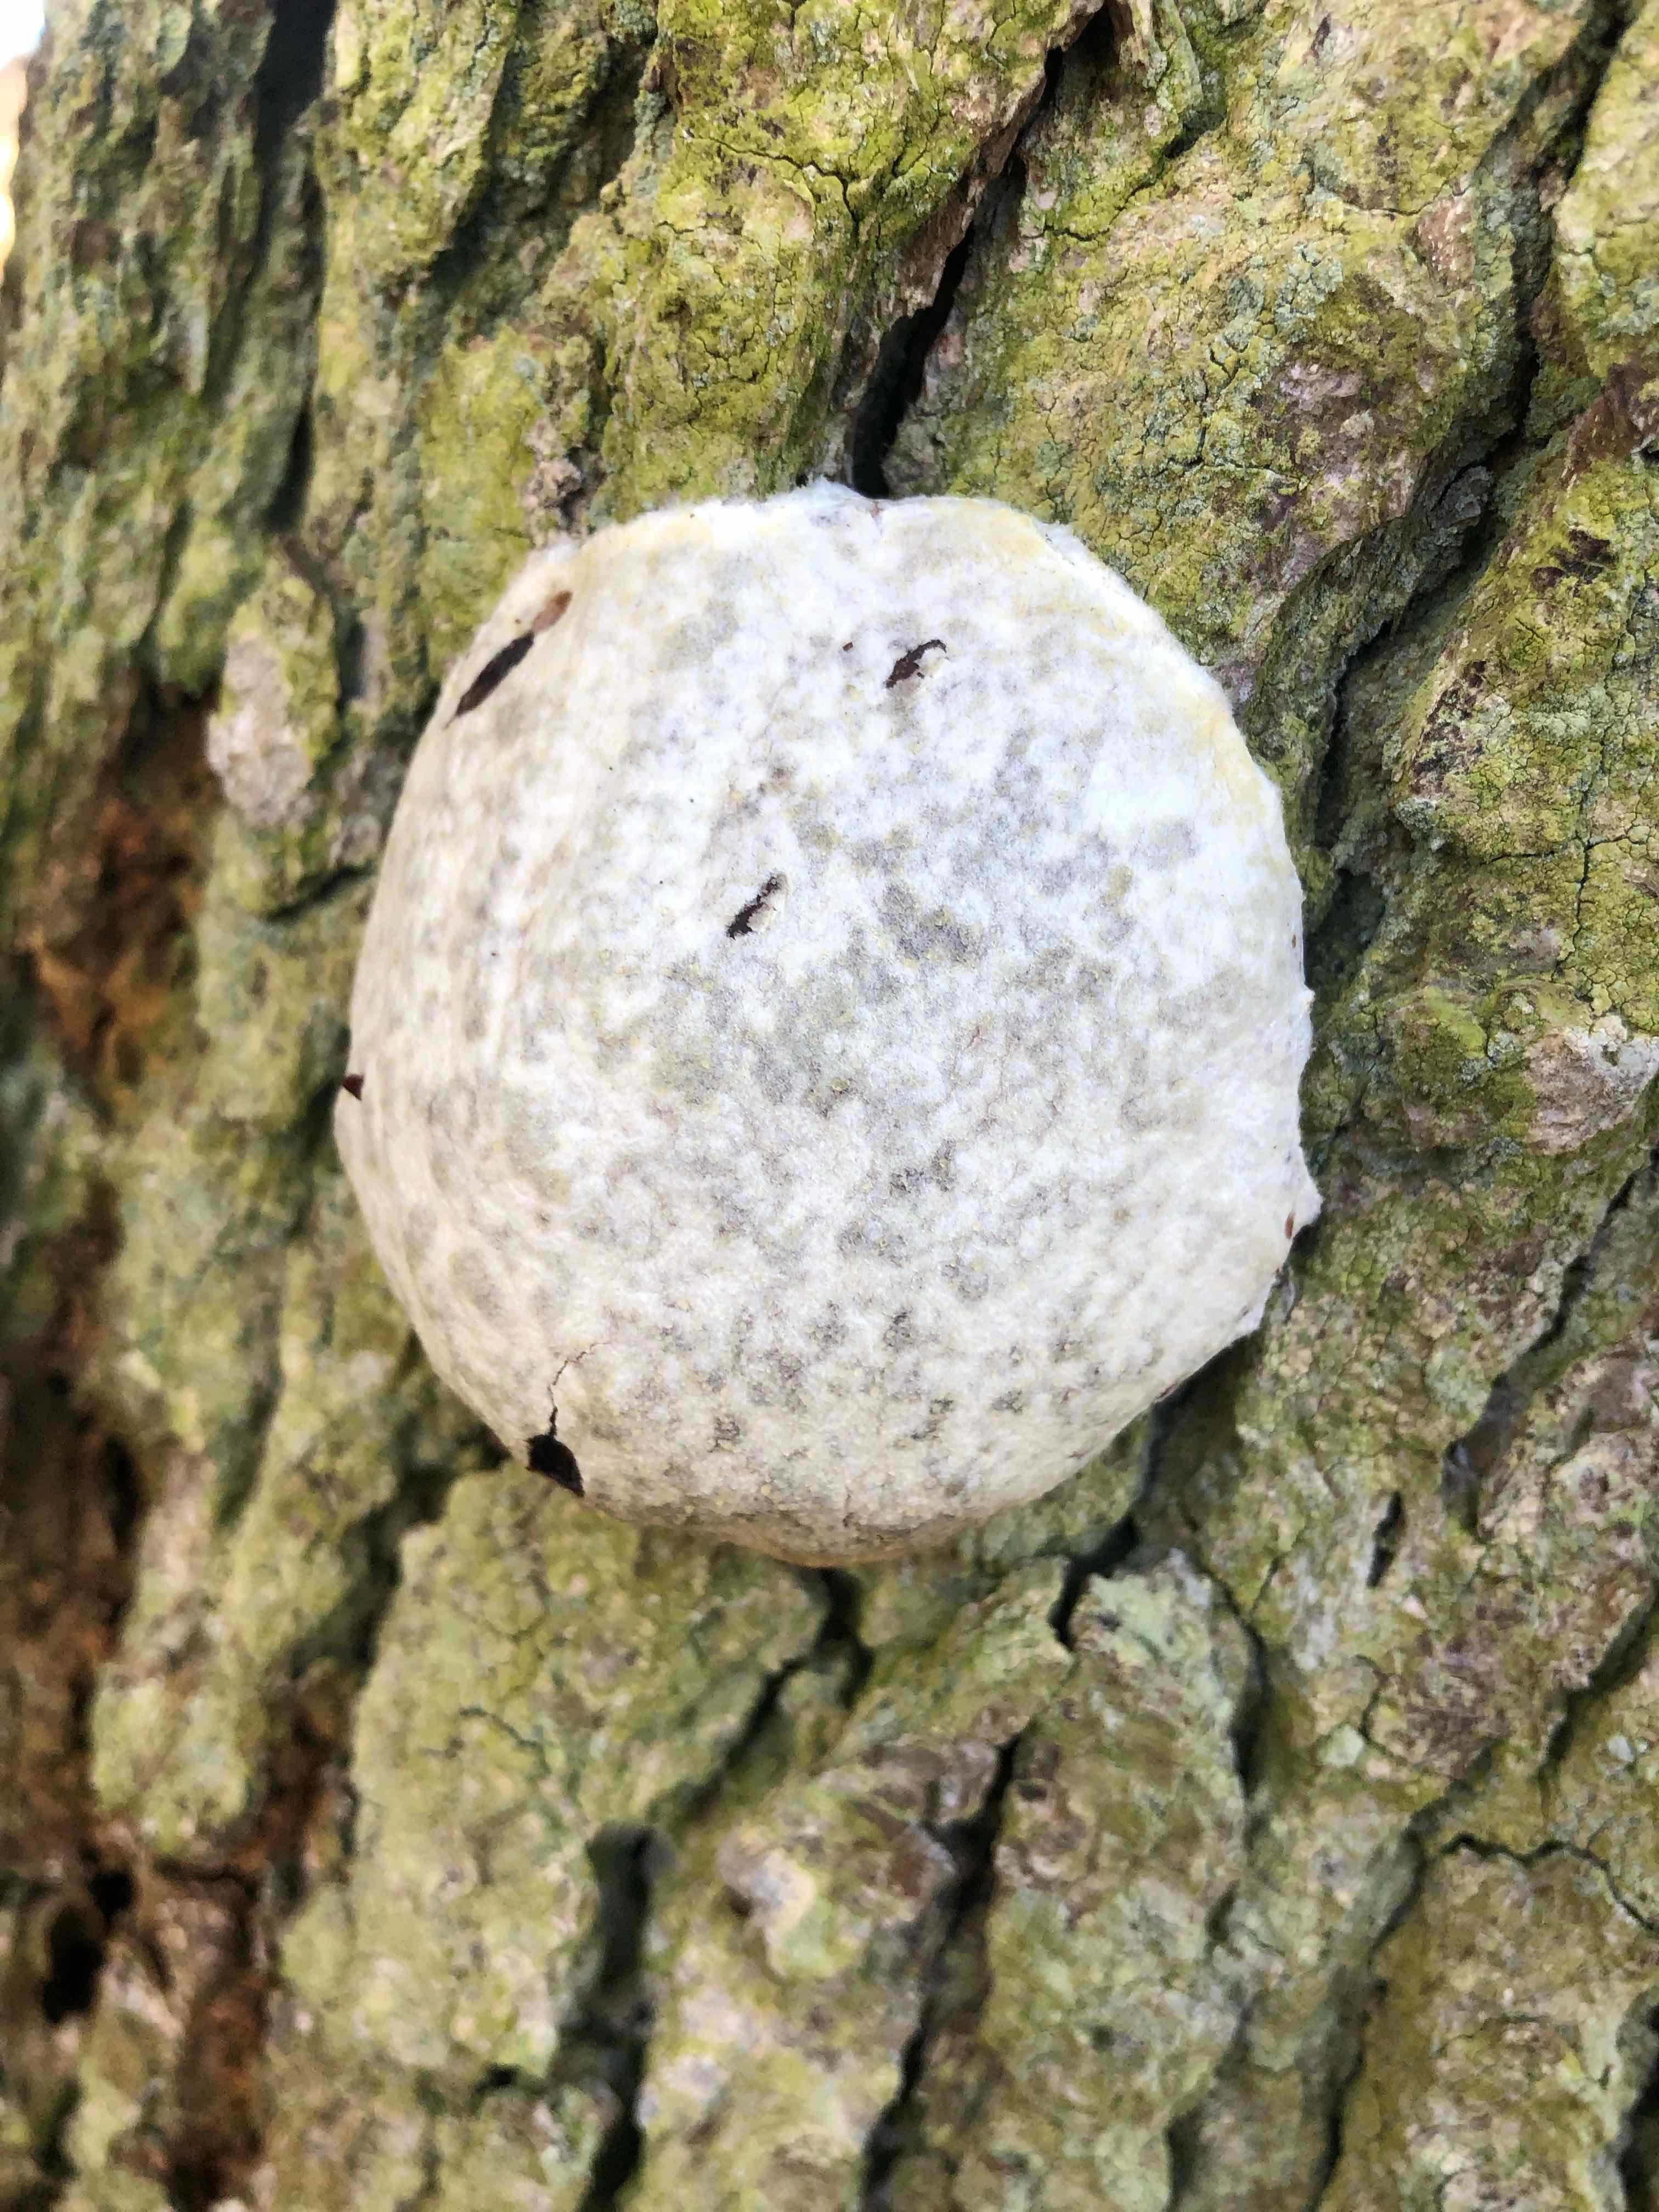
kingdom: Protozoa
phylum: Mycetozoa
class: Myxomycetes
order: Cribrariales
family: Tubiferaceae
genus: Reticularia
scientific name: Reticularia lycoperdon
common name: skinnende støvpude
